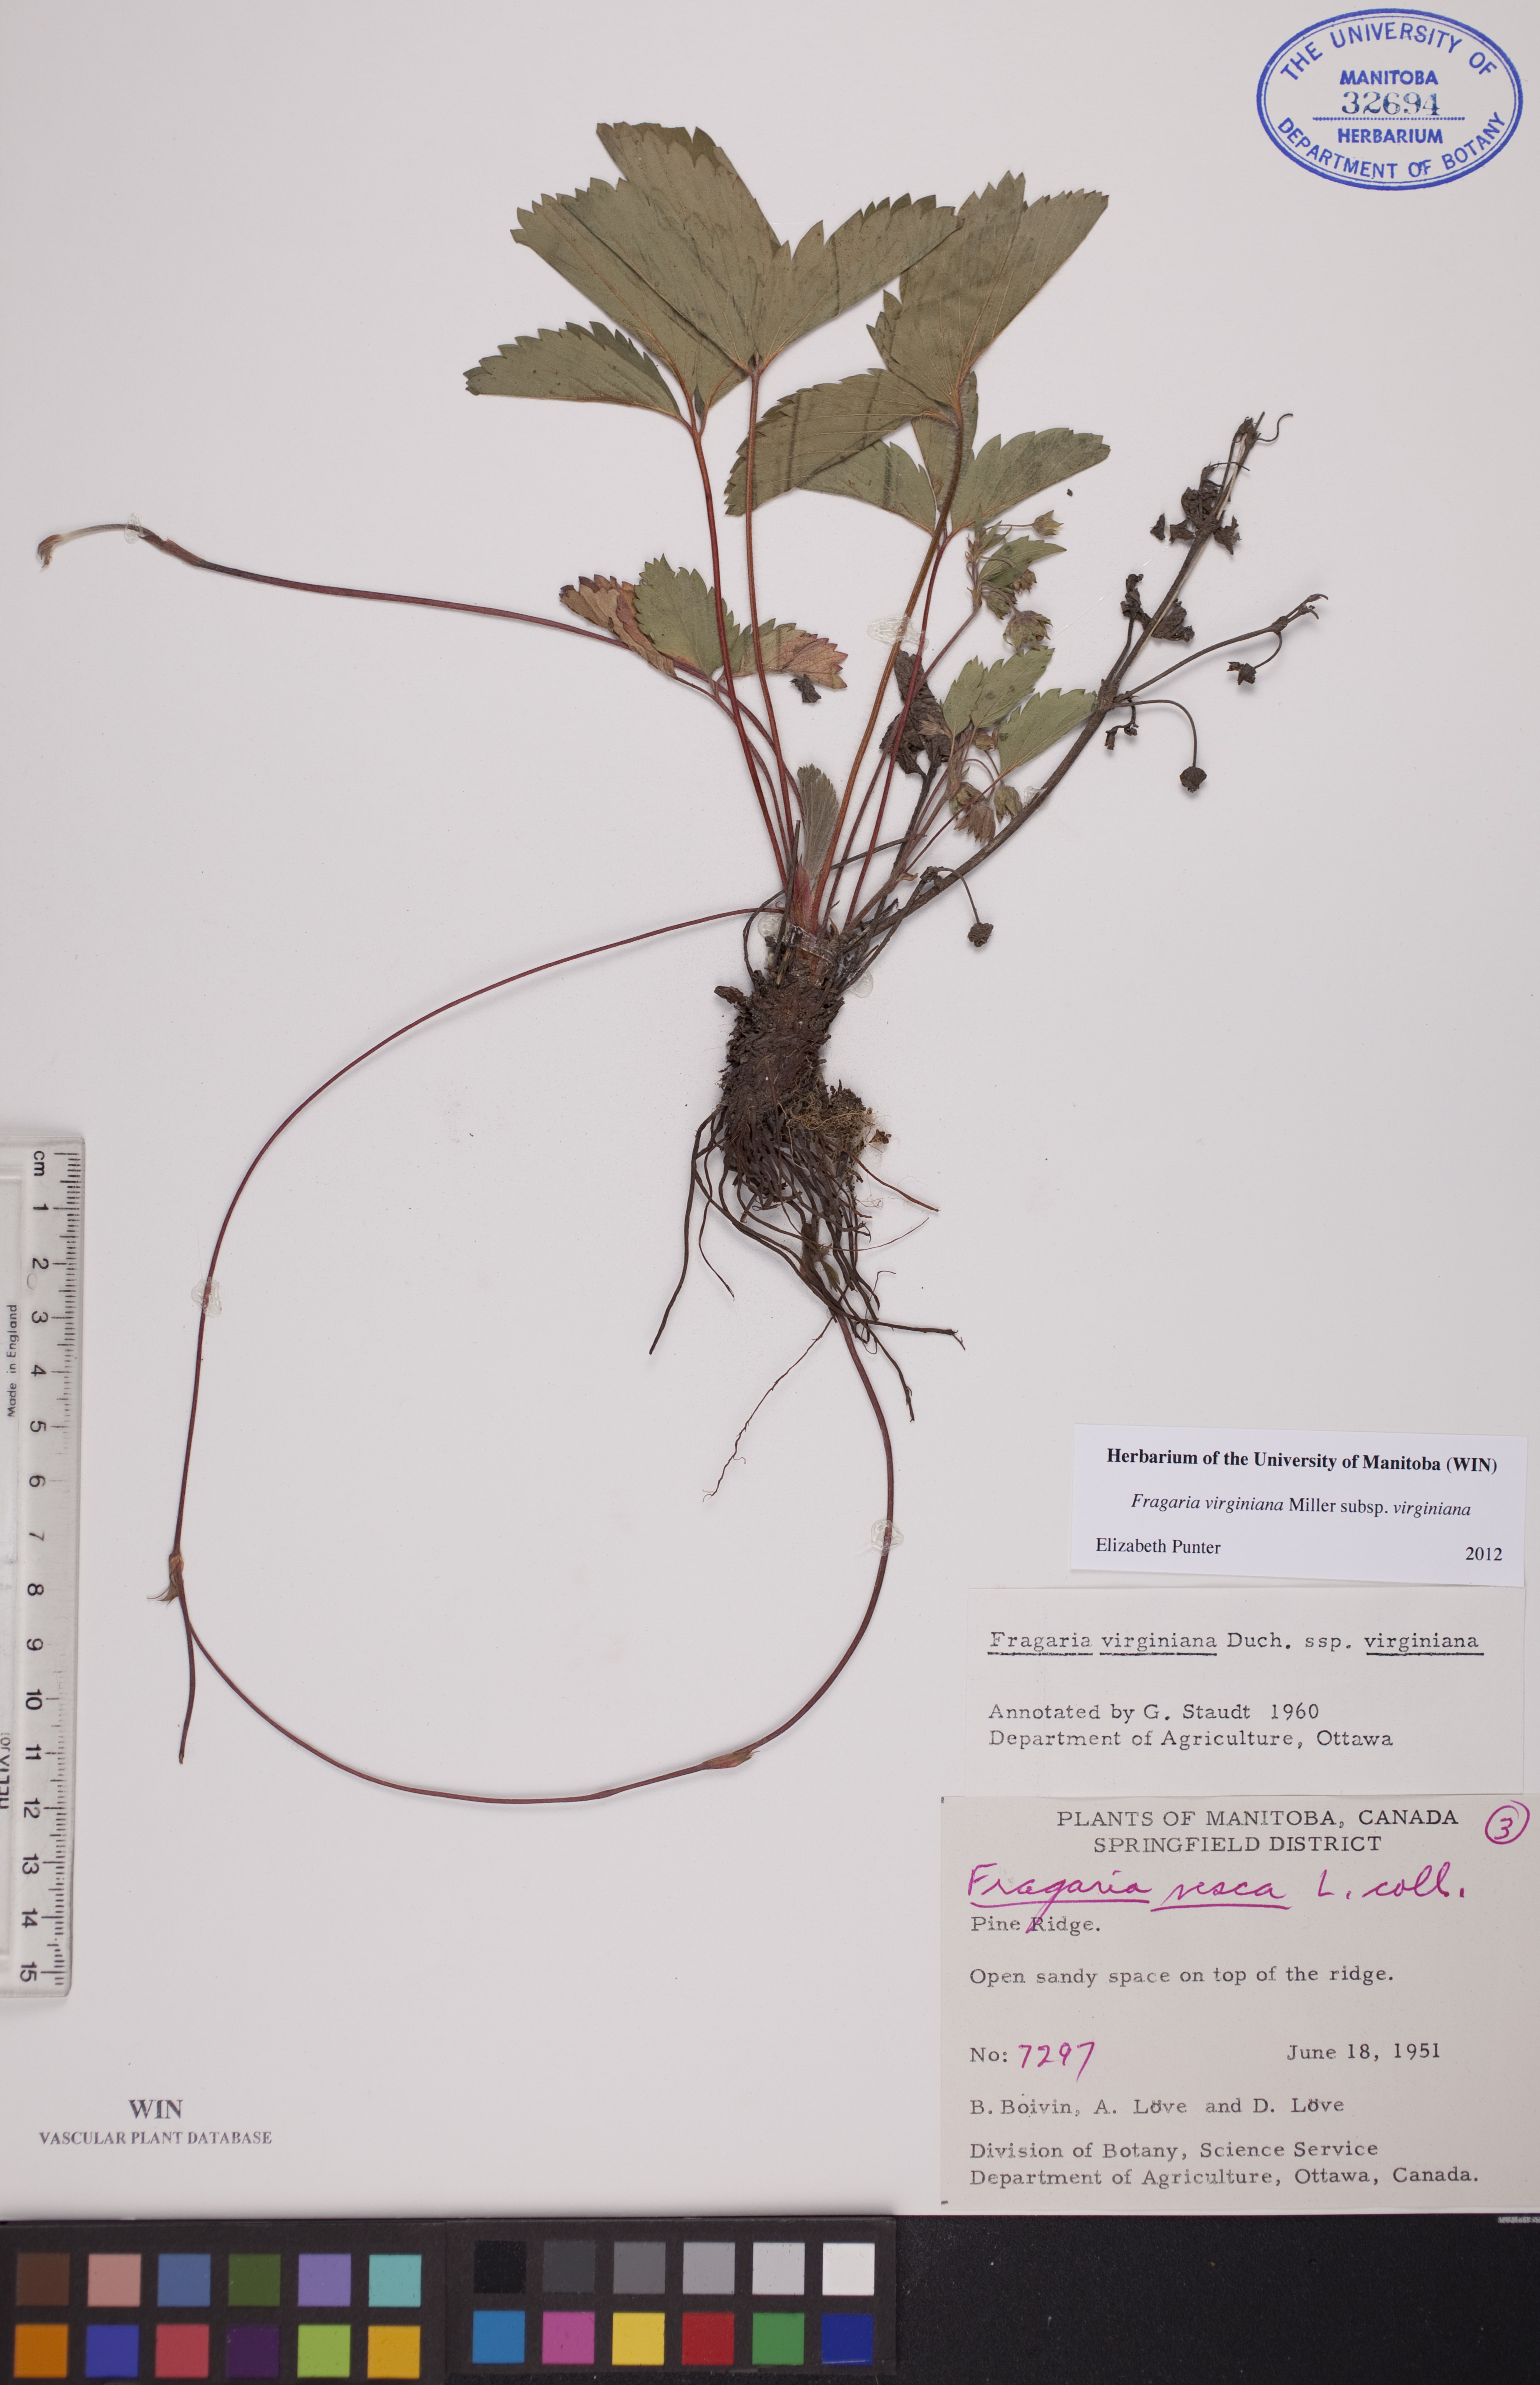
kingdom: Plantae
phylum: Tracheophyta
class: Magnoliopsida
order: Rosales
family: Rosaceae
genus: Fragaria
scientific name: Fragaria virginiana
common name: Thickleaved wild strawberry
